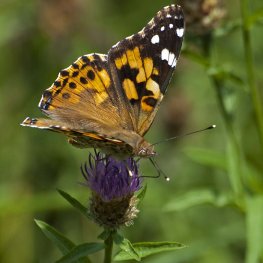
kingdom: Animalia
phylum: Arthropoda
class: Insecta
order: Lepidoptera
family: Nymphalidae
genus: Vanessa
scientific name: Vanessa cardui
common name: Painted Lady
